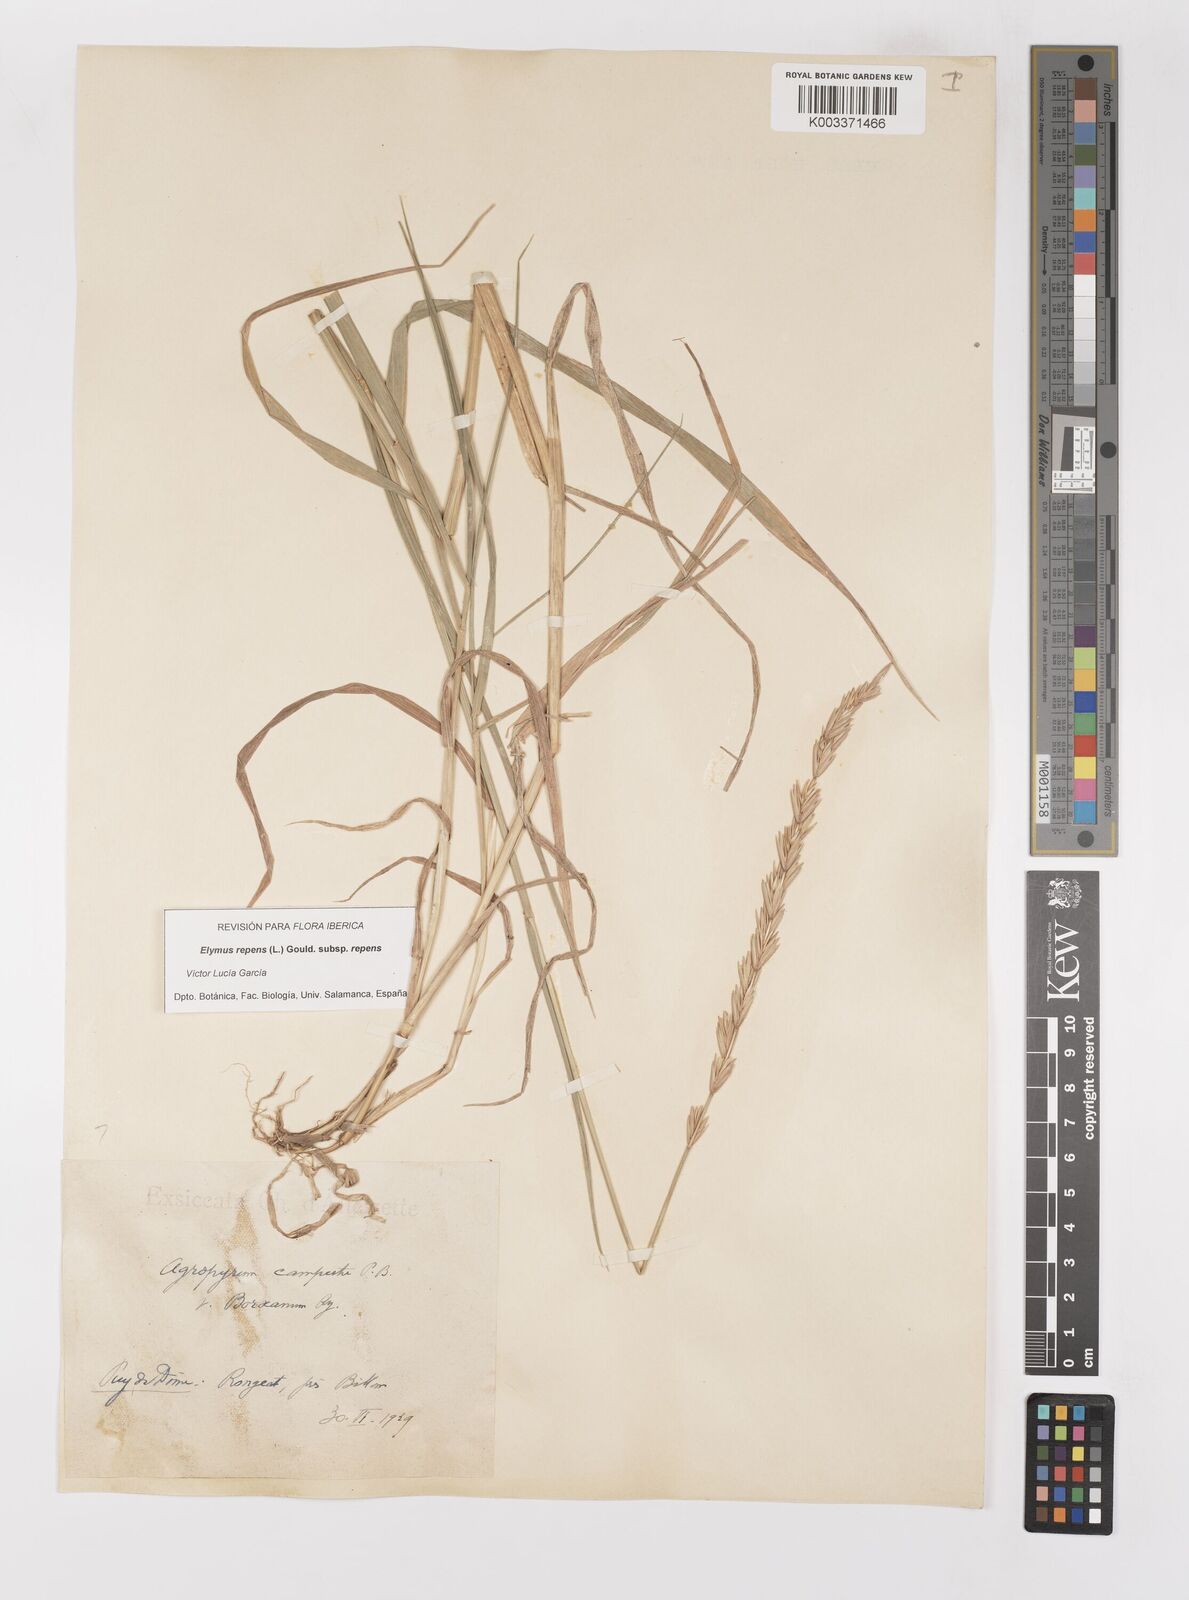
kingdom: Plantae
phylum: Tracheophyta
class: Liliopsida
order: Poales
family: Poaceae
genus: Elymus
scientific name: Elymus repens
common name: Quackgrass
